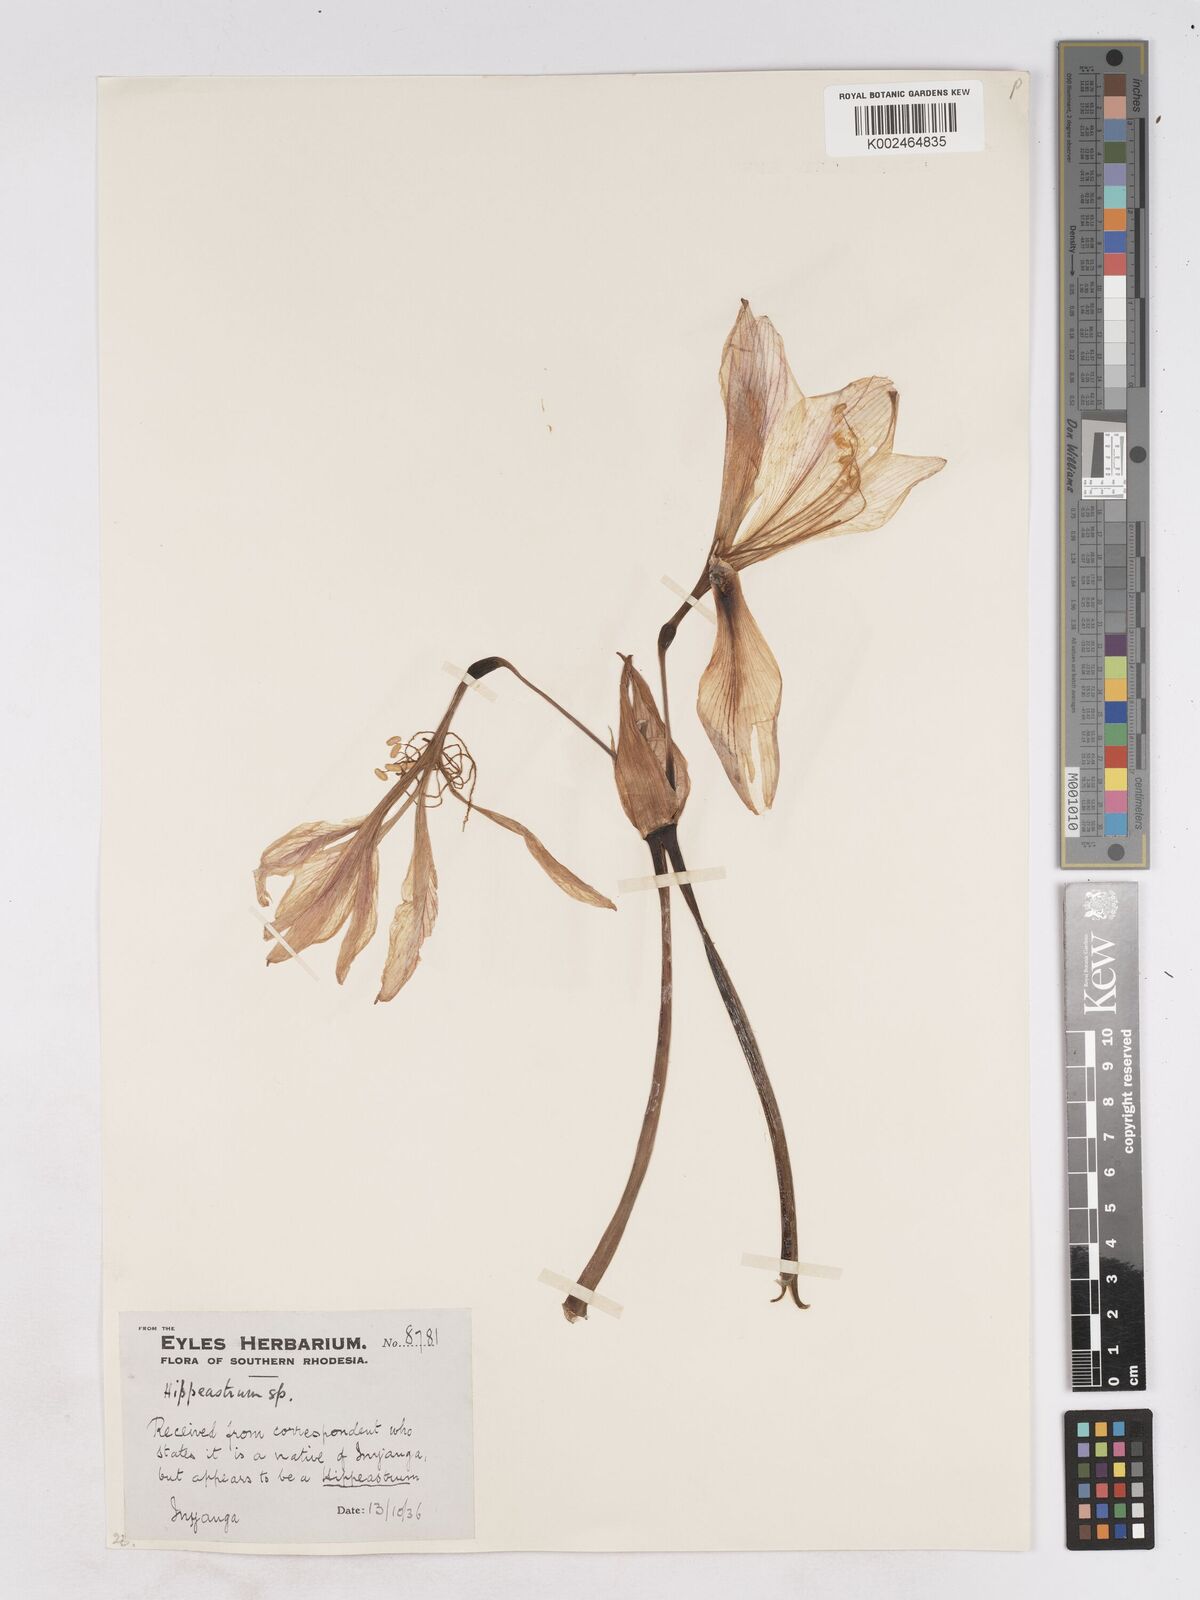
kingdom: Plantae
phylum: Tracheophyta
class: Liliopsida
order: Asparagales
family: Amaryllidaceae
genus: Hippeastrum
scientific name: Hippeastrum
